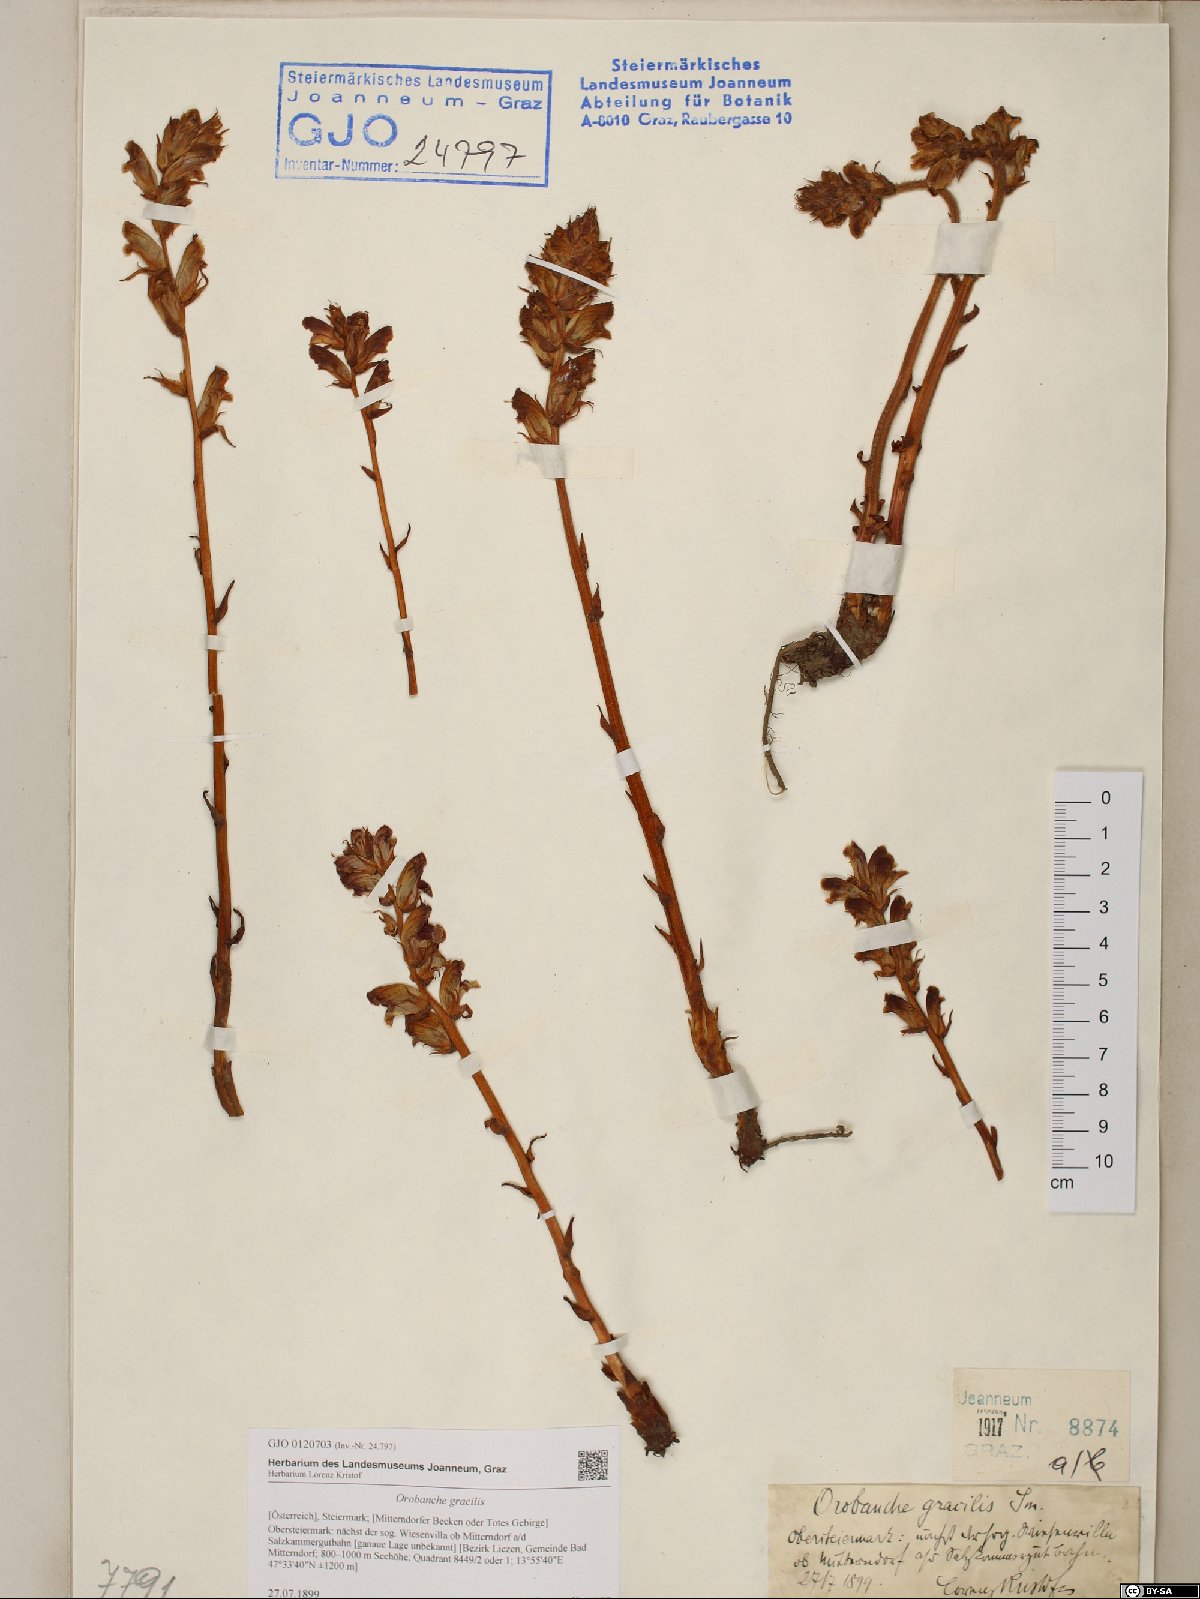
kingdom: Plantae
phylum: Tracheophyta
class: Magnoliopsida
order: Lamiales
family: Orobanchaceae
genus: Orobanche
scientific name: Orobanche gracilis
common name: Slender broomrape
